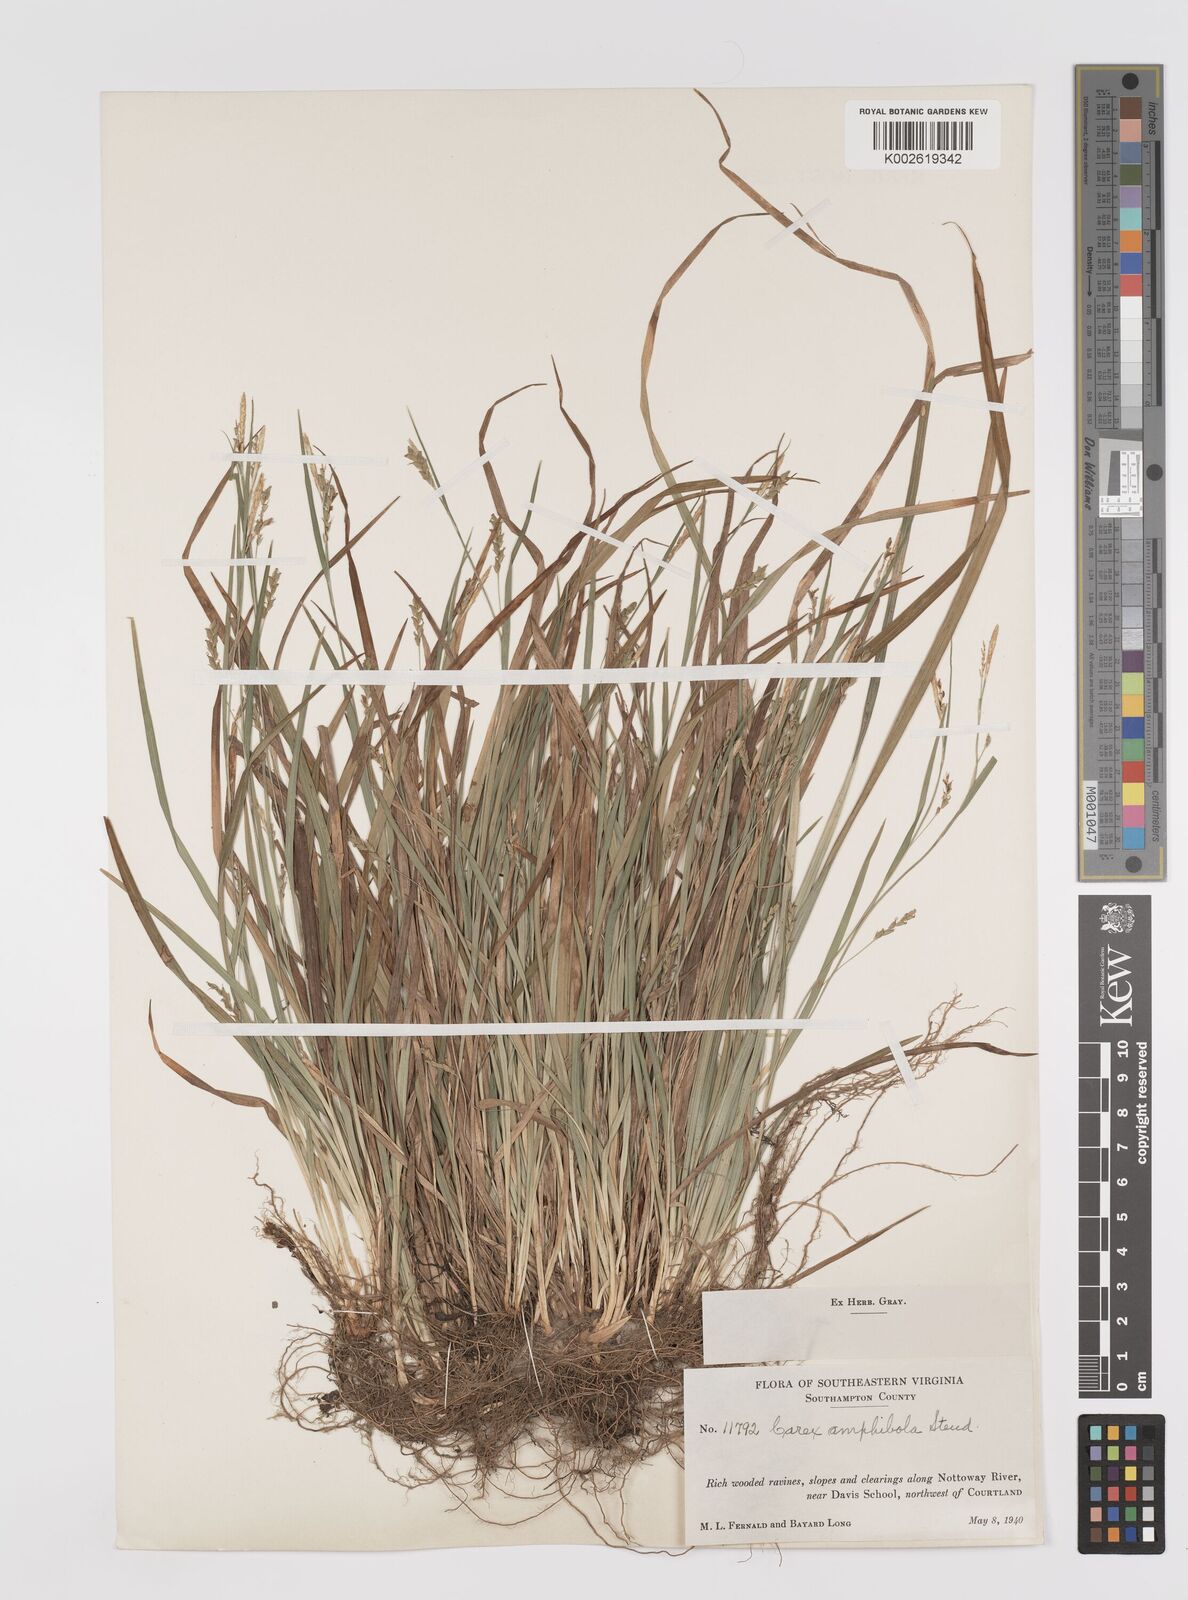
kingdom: Plantae
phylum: Tracheophyta
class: Liliopsida
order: Poales
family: Cyperaceae
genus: Carex
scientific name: Carex amphibola
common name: Amphibious sedge
